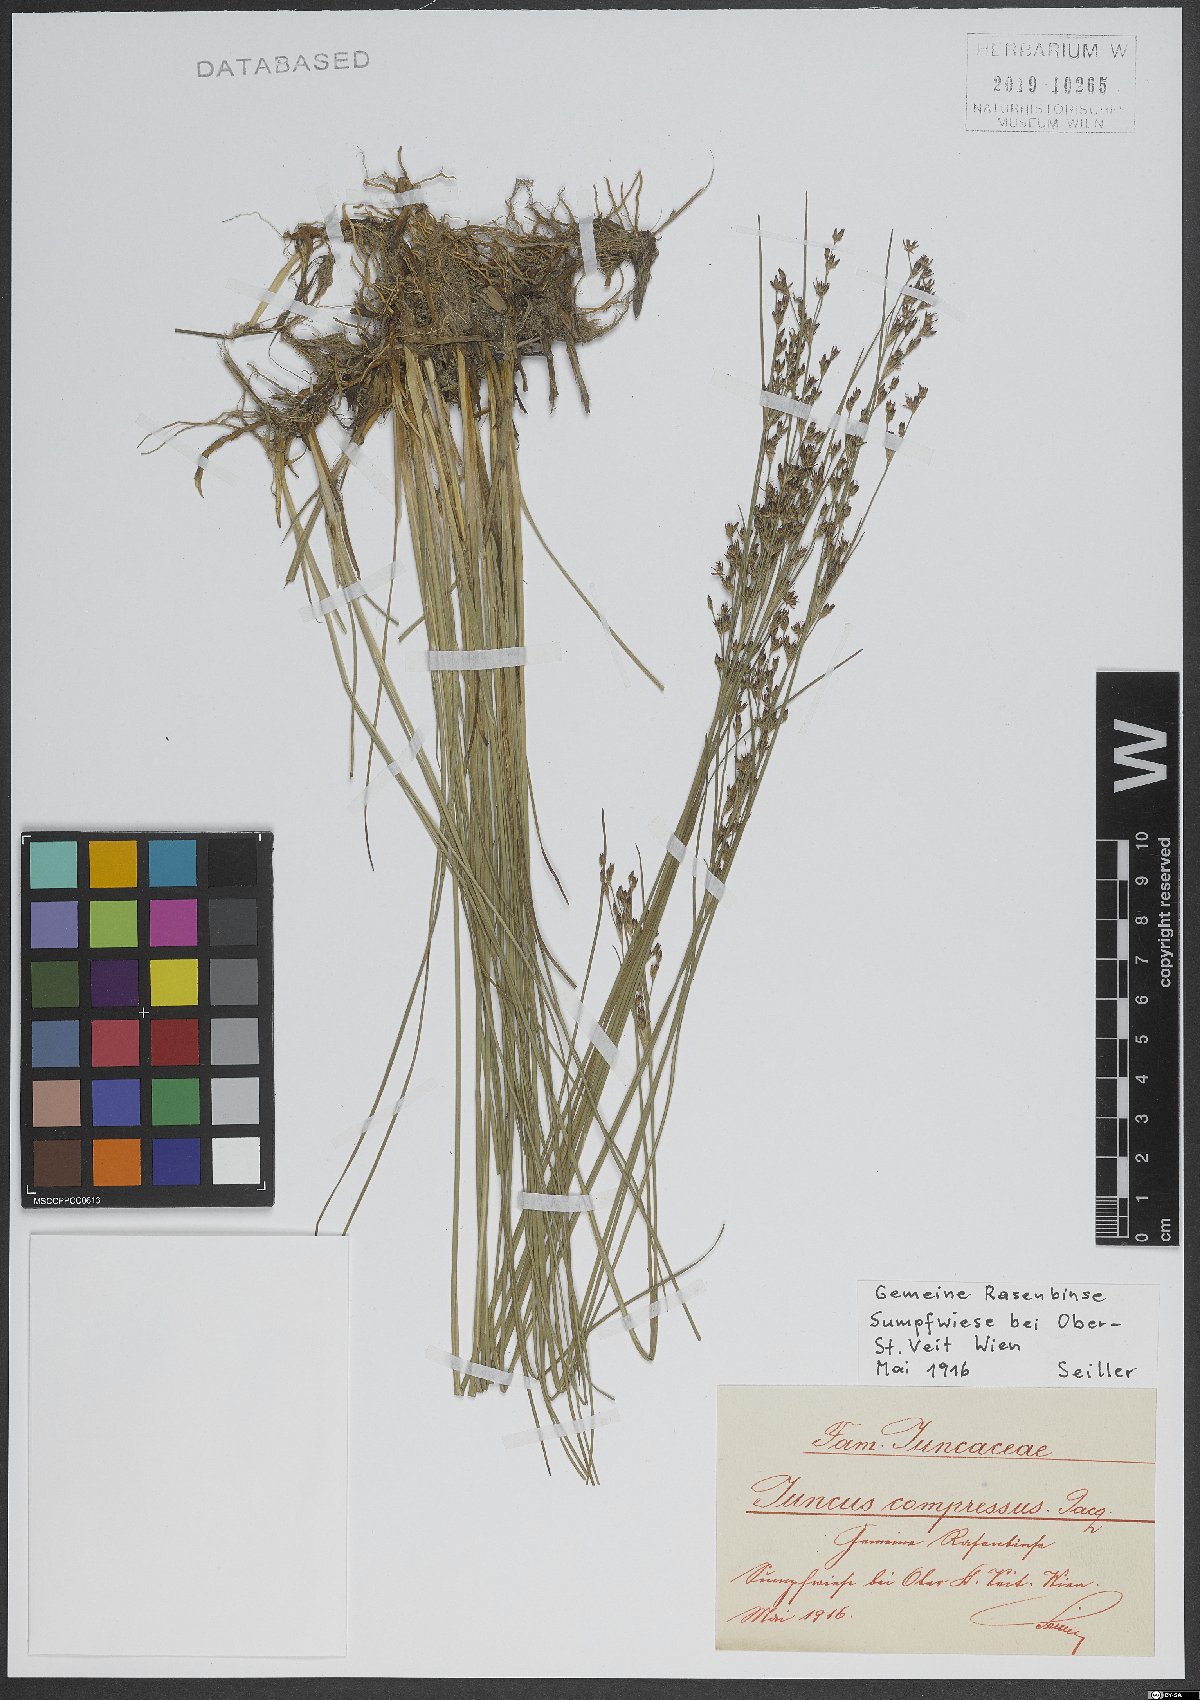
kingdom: Plantae
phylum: Tracheophyta
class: Liliopsida
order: Poales
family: Juncaceae
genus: Juncus
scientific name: Juncus compressus
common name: Round-fruited rush
